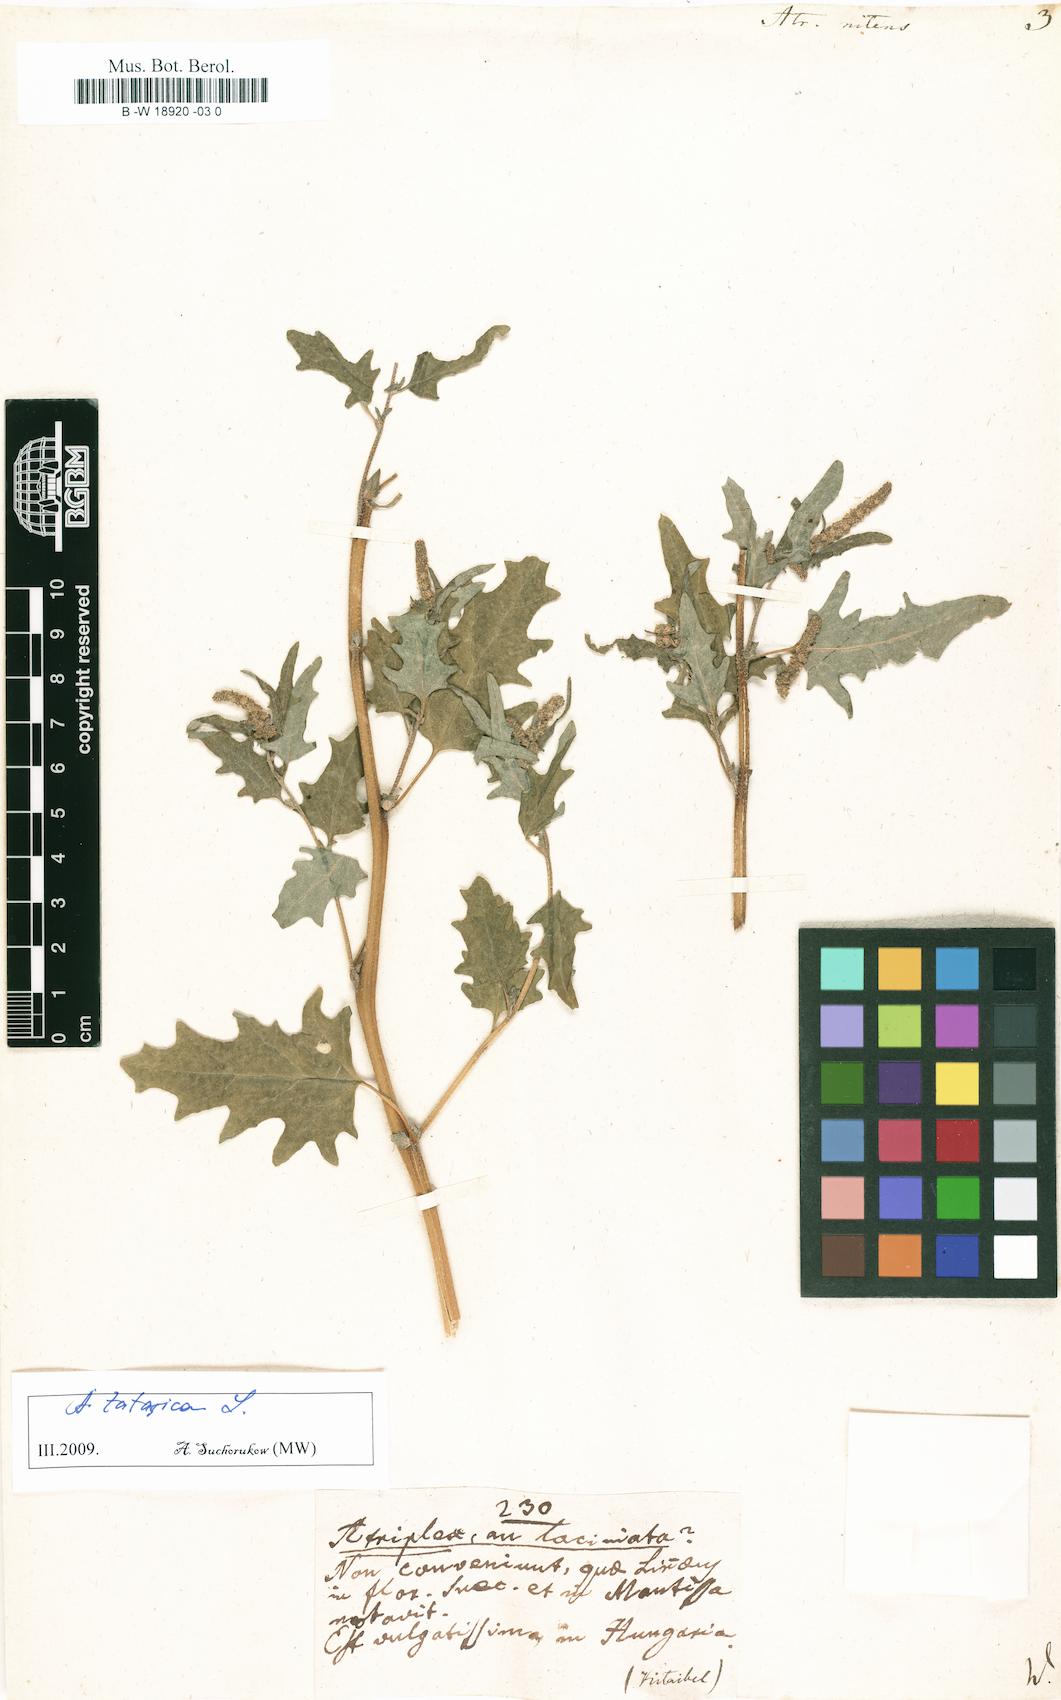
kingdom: Plantae
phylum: Tracheophyta
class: Magnoliopsida
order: Caryophyllales
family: Amaranthaceae
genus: Atriplex
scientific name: Atriplex sagittata
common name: Purple orache
